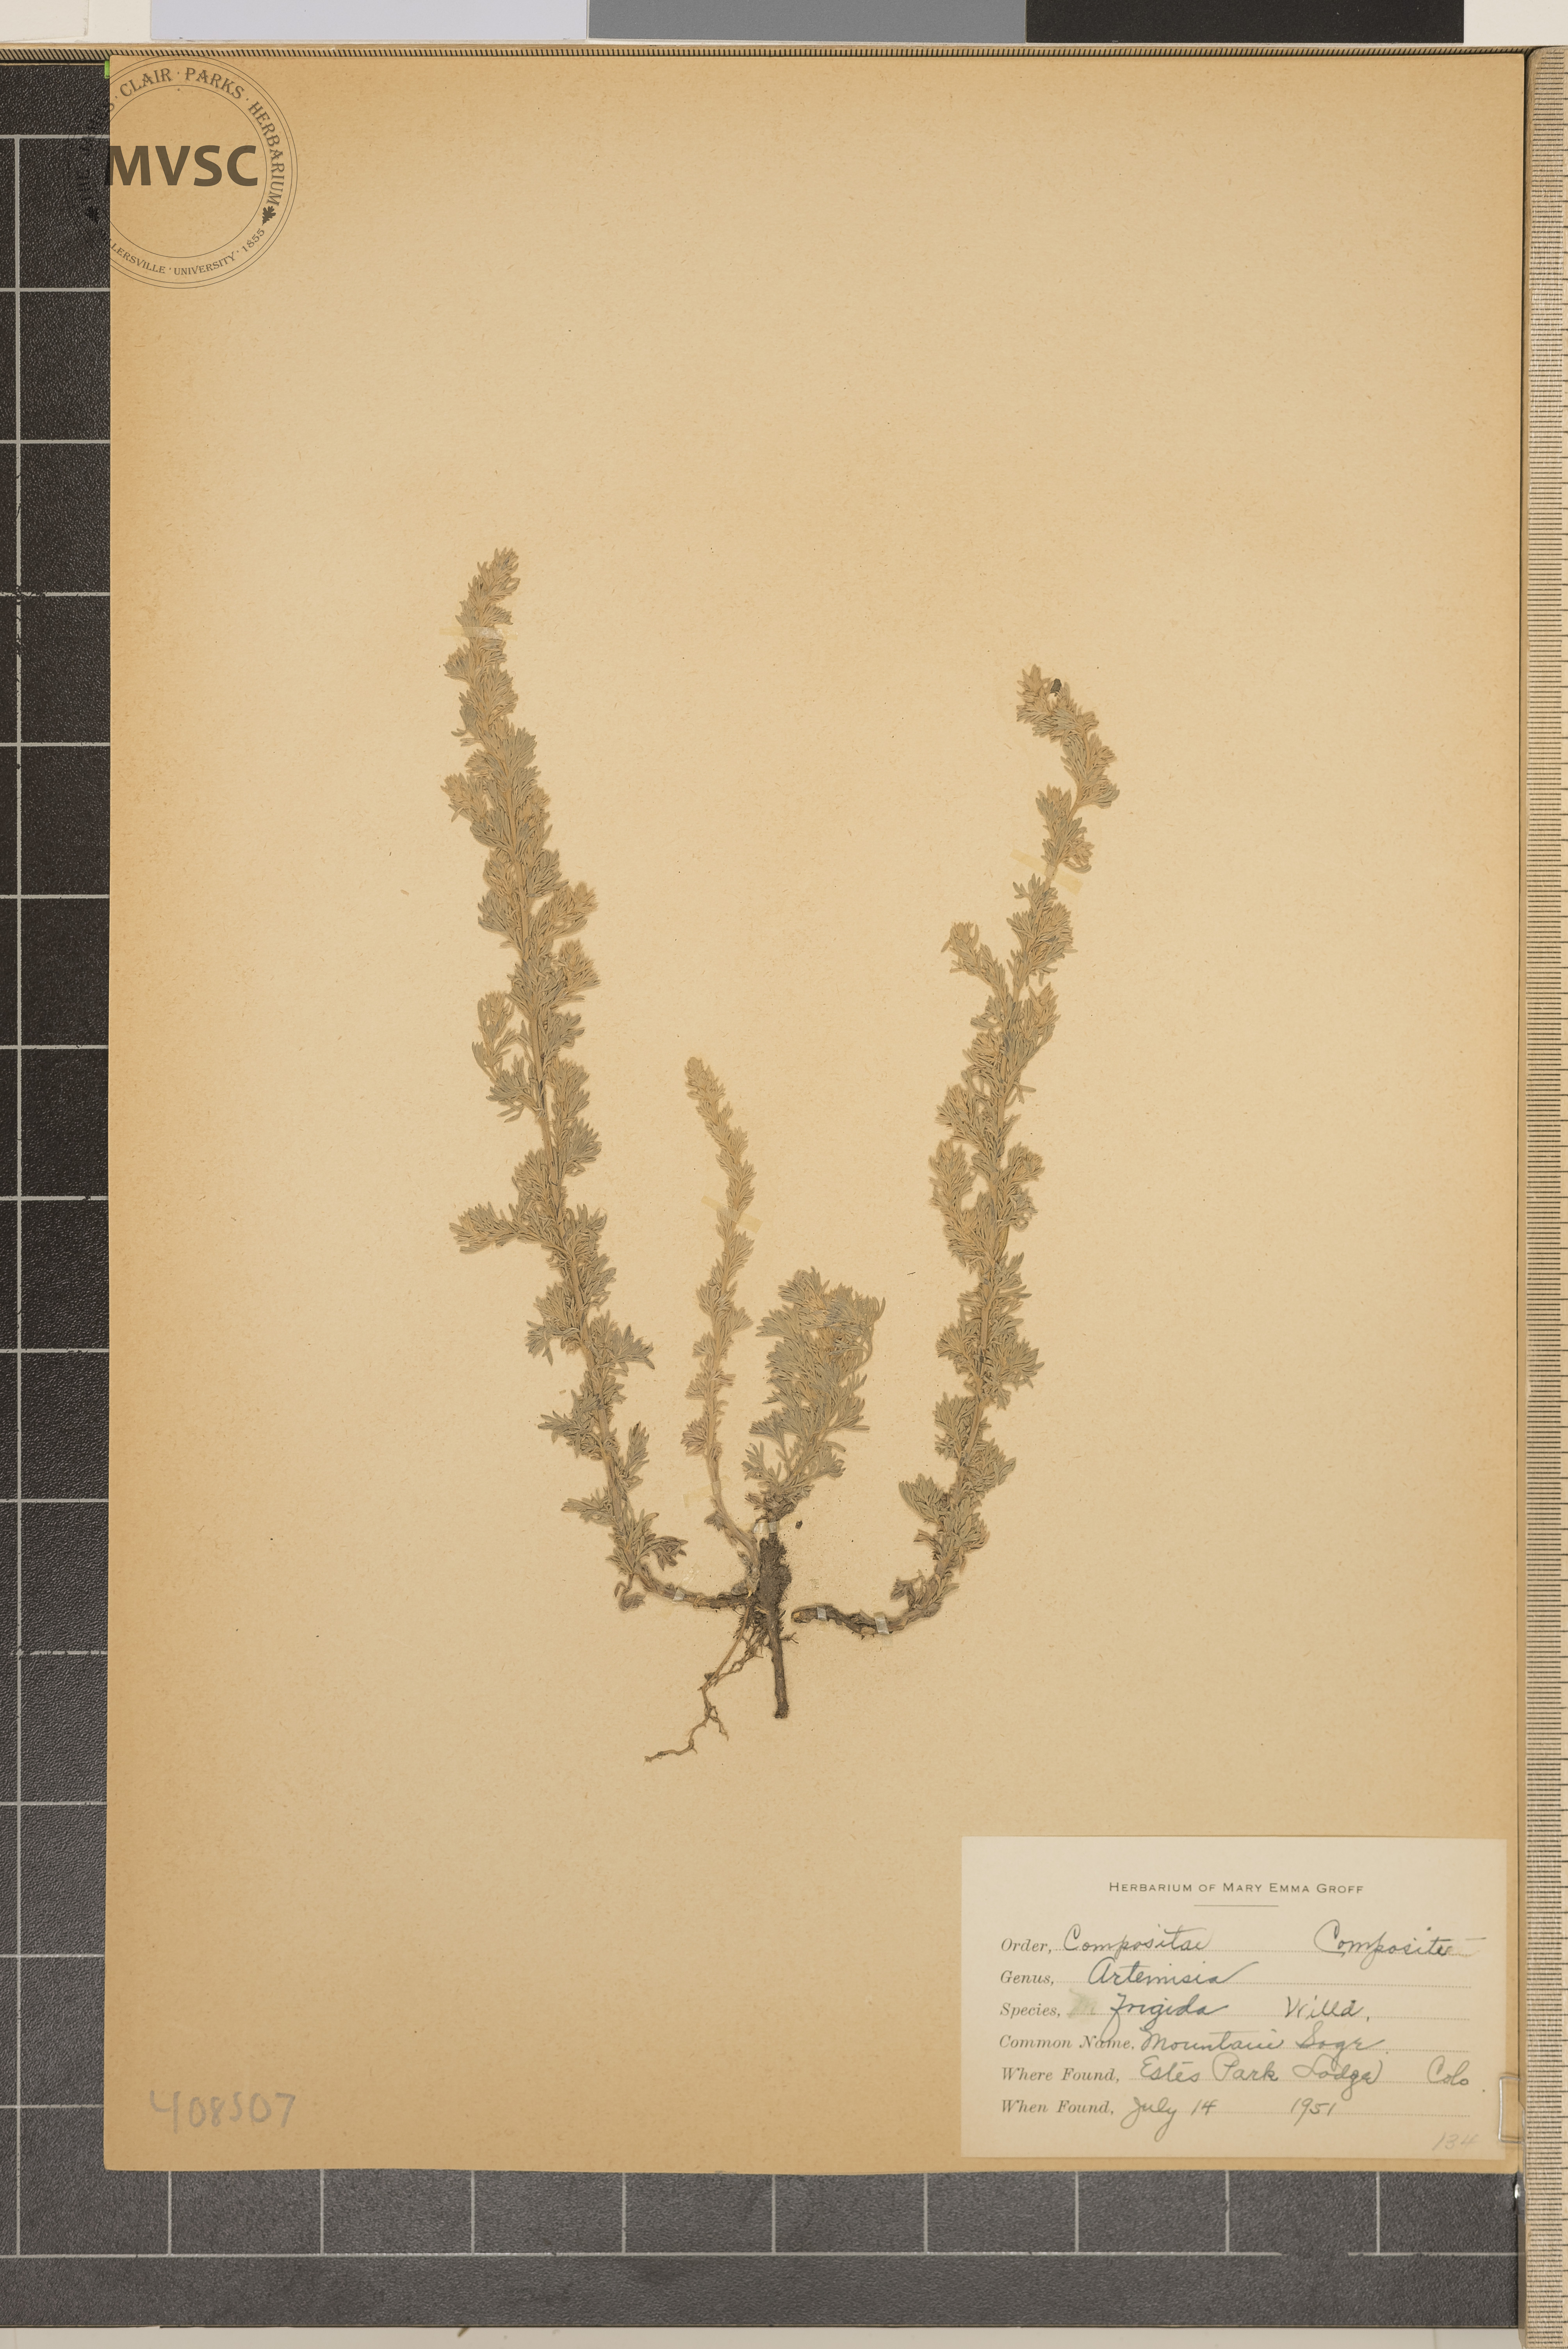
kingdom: Plantae
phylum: Tracheophyta
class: Magnoliopsida
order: Asterales
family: Asteraceae
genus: Artemisia
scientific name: Artemisia frigida
